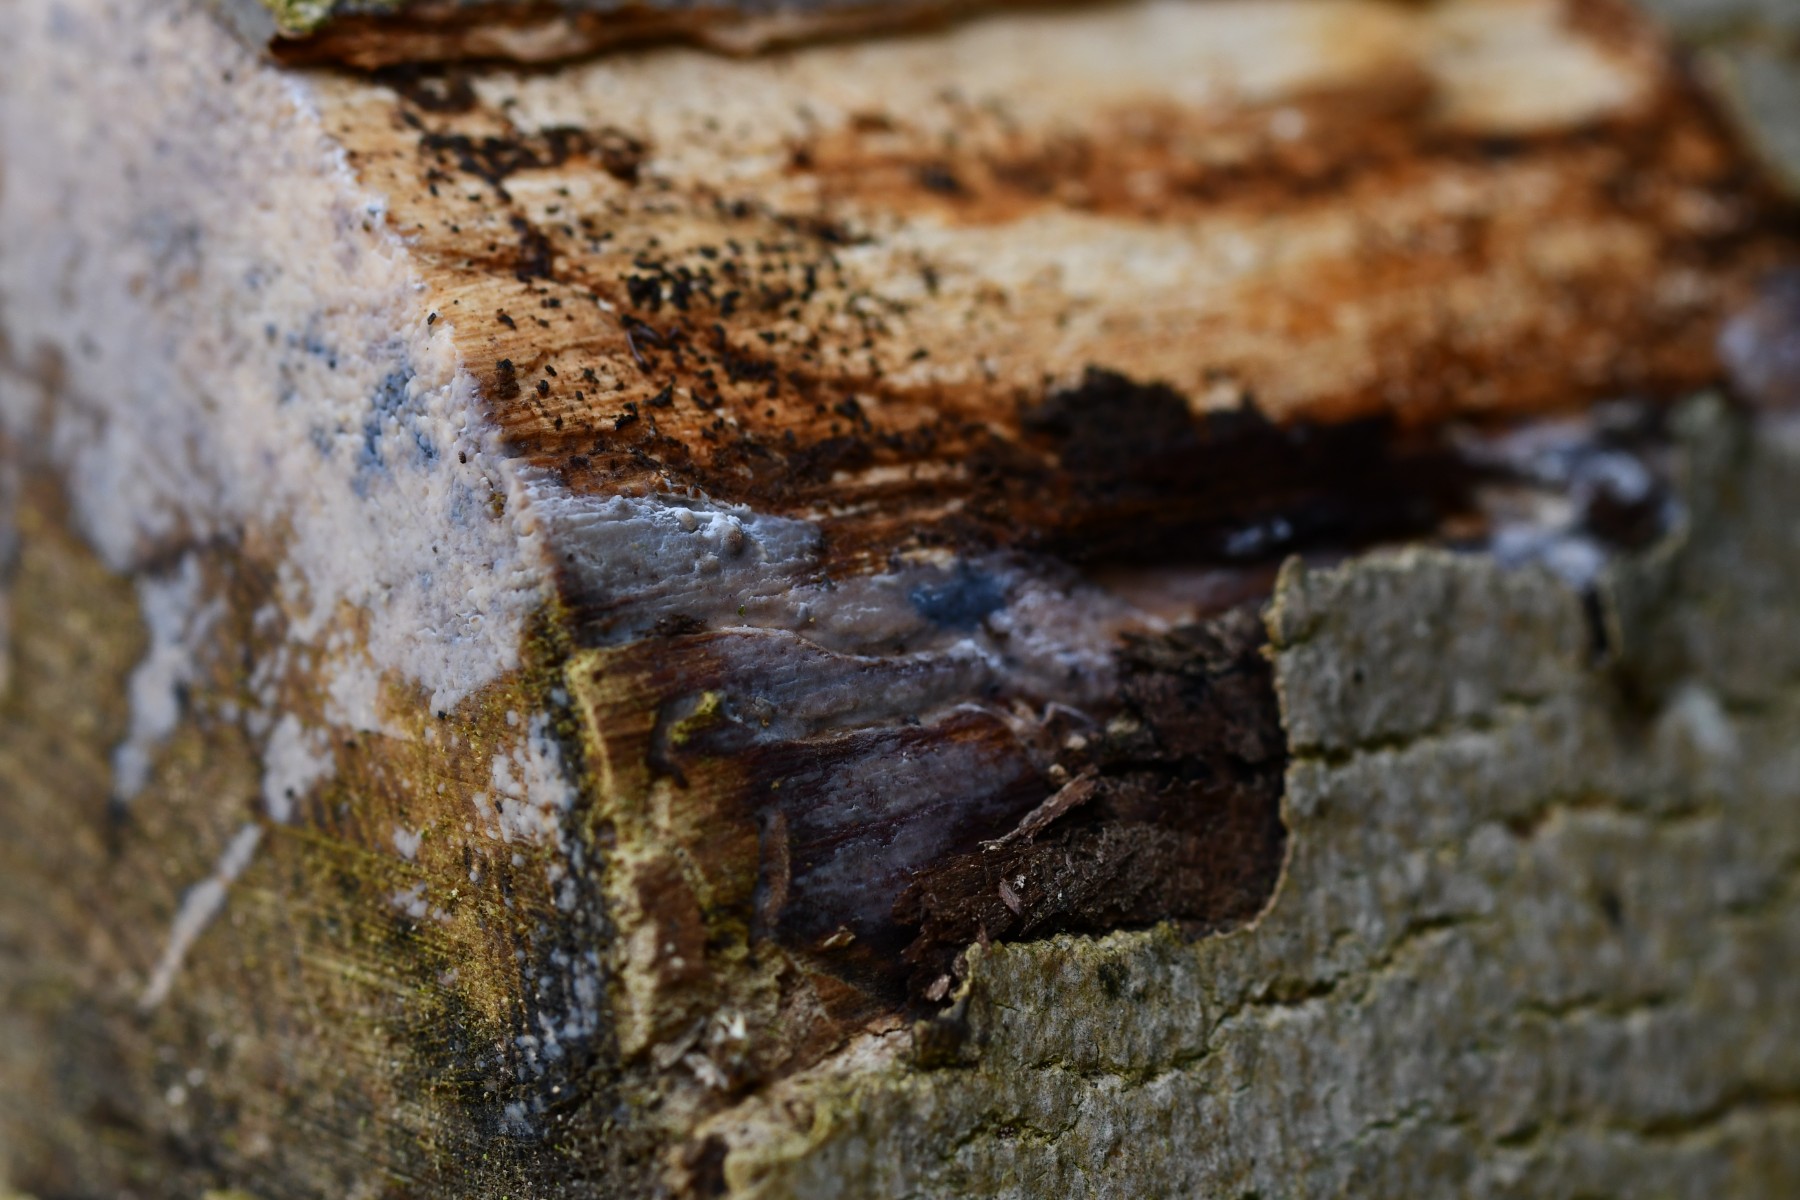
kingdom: Fungi
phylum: Basidiomycota
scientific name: Basidiomycota
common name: basidiesvampe
